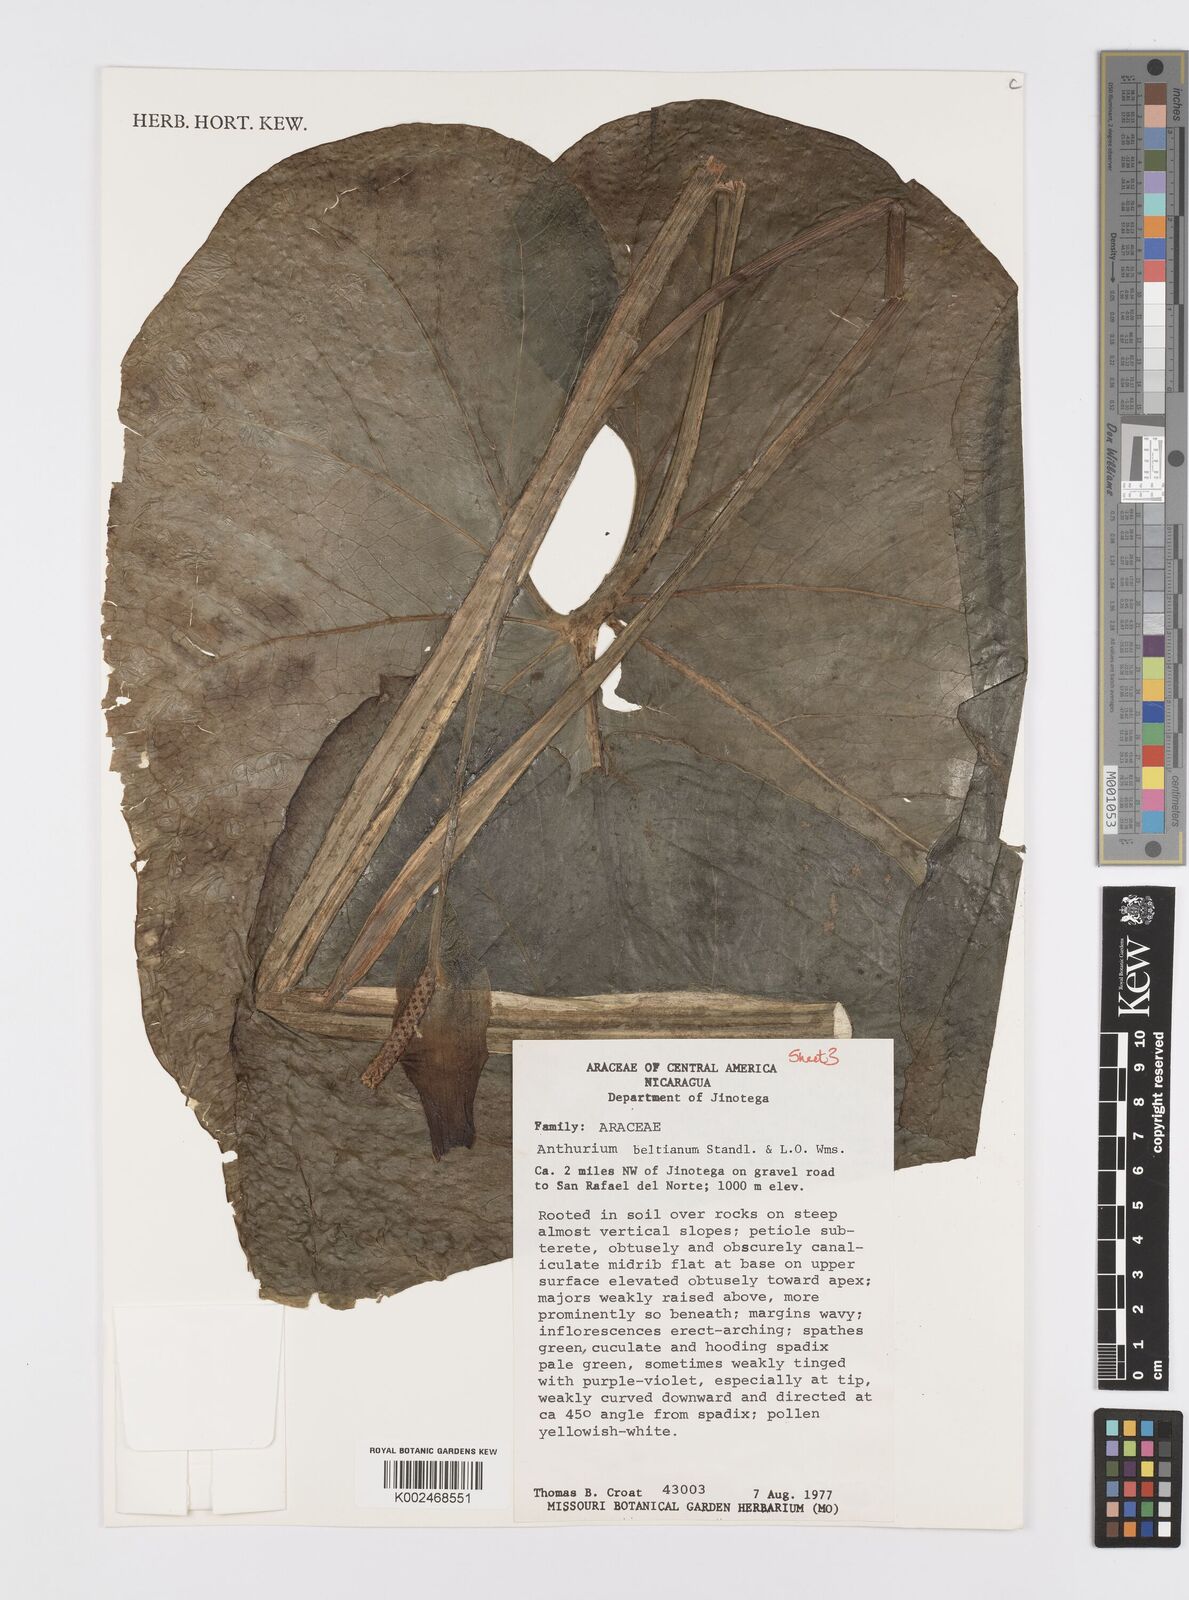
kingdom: Plantae
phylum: Tracheophyta
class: Liliopsida
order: Alismatales
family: Araceae
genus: Anthurium
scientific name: Anthurium beltianum
